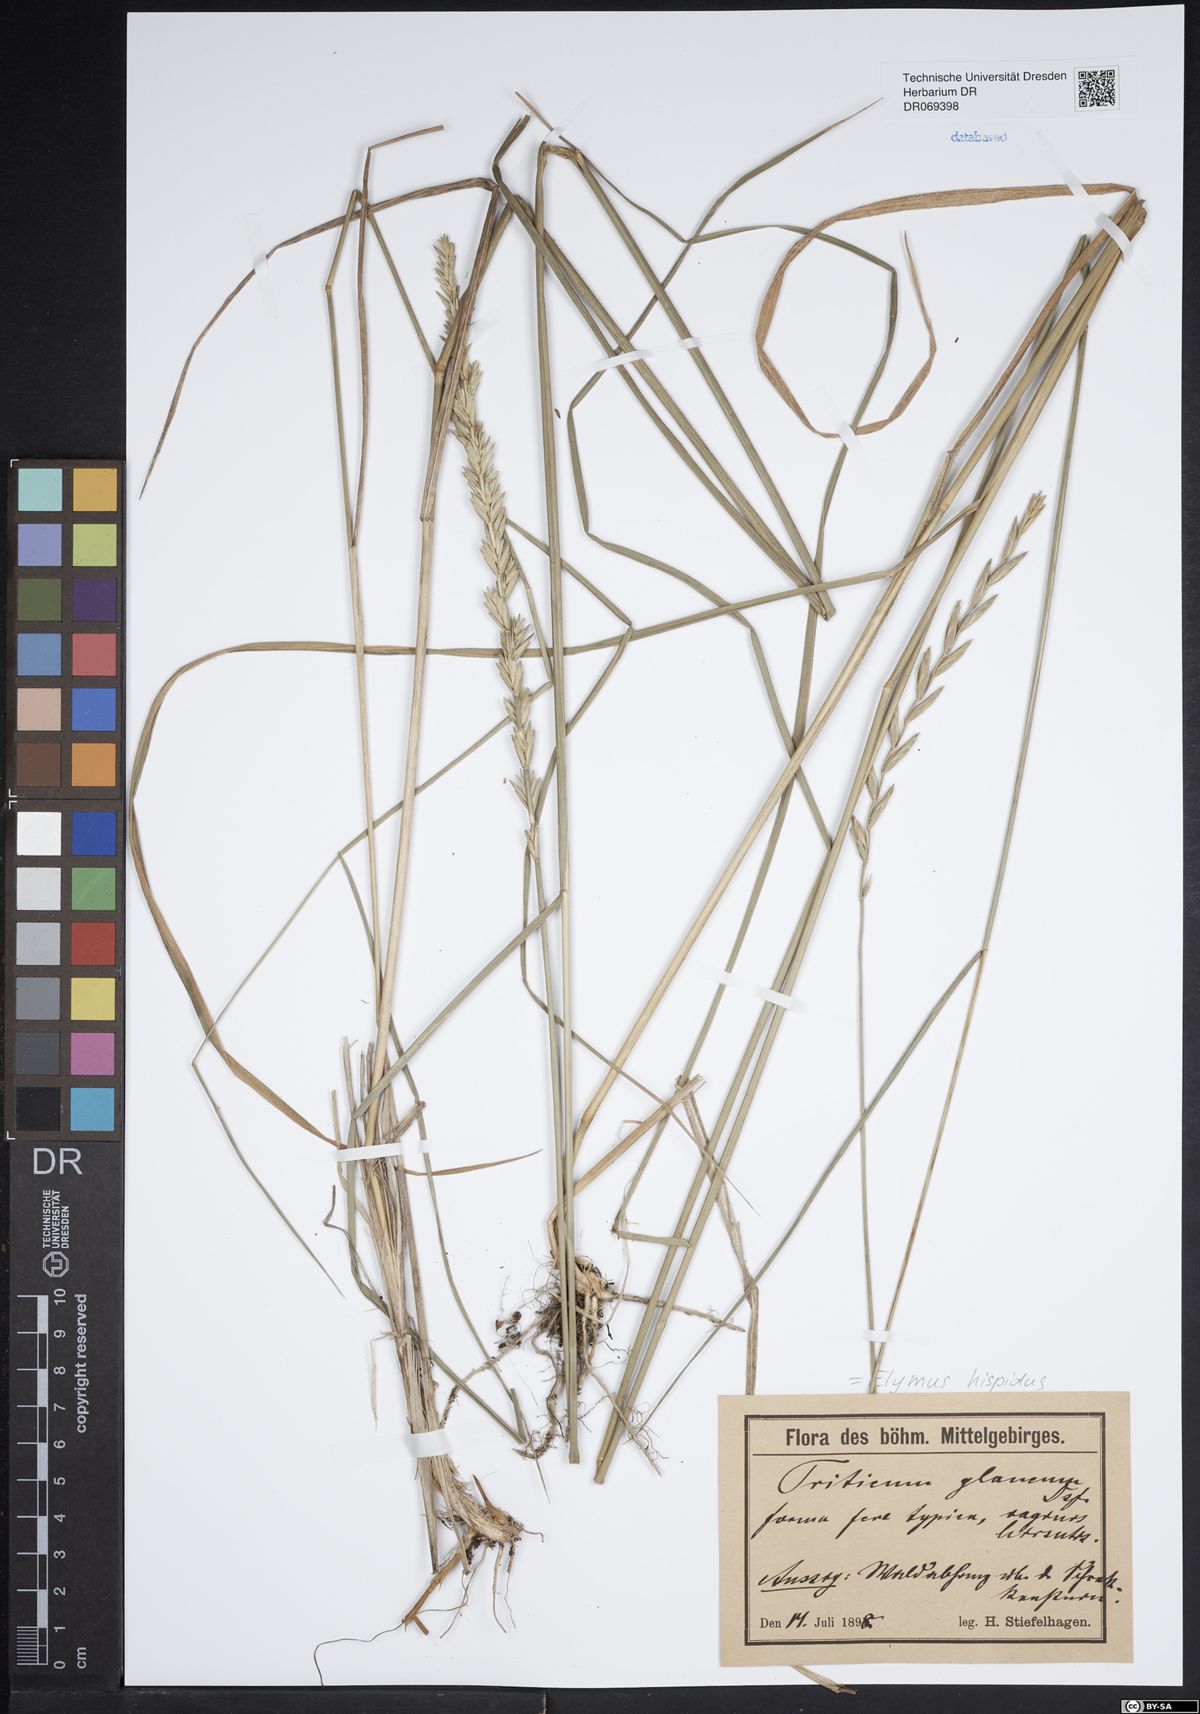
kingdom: Plantae
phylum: Tracheophyta
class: Liliopsida
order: Poales
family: Poaceae
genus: Thinopyrum
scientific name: Thinopyrum intermedium
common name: Intermediate wheatgrass
